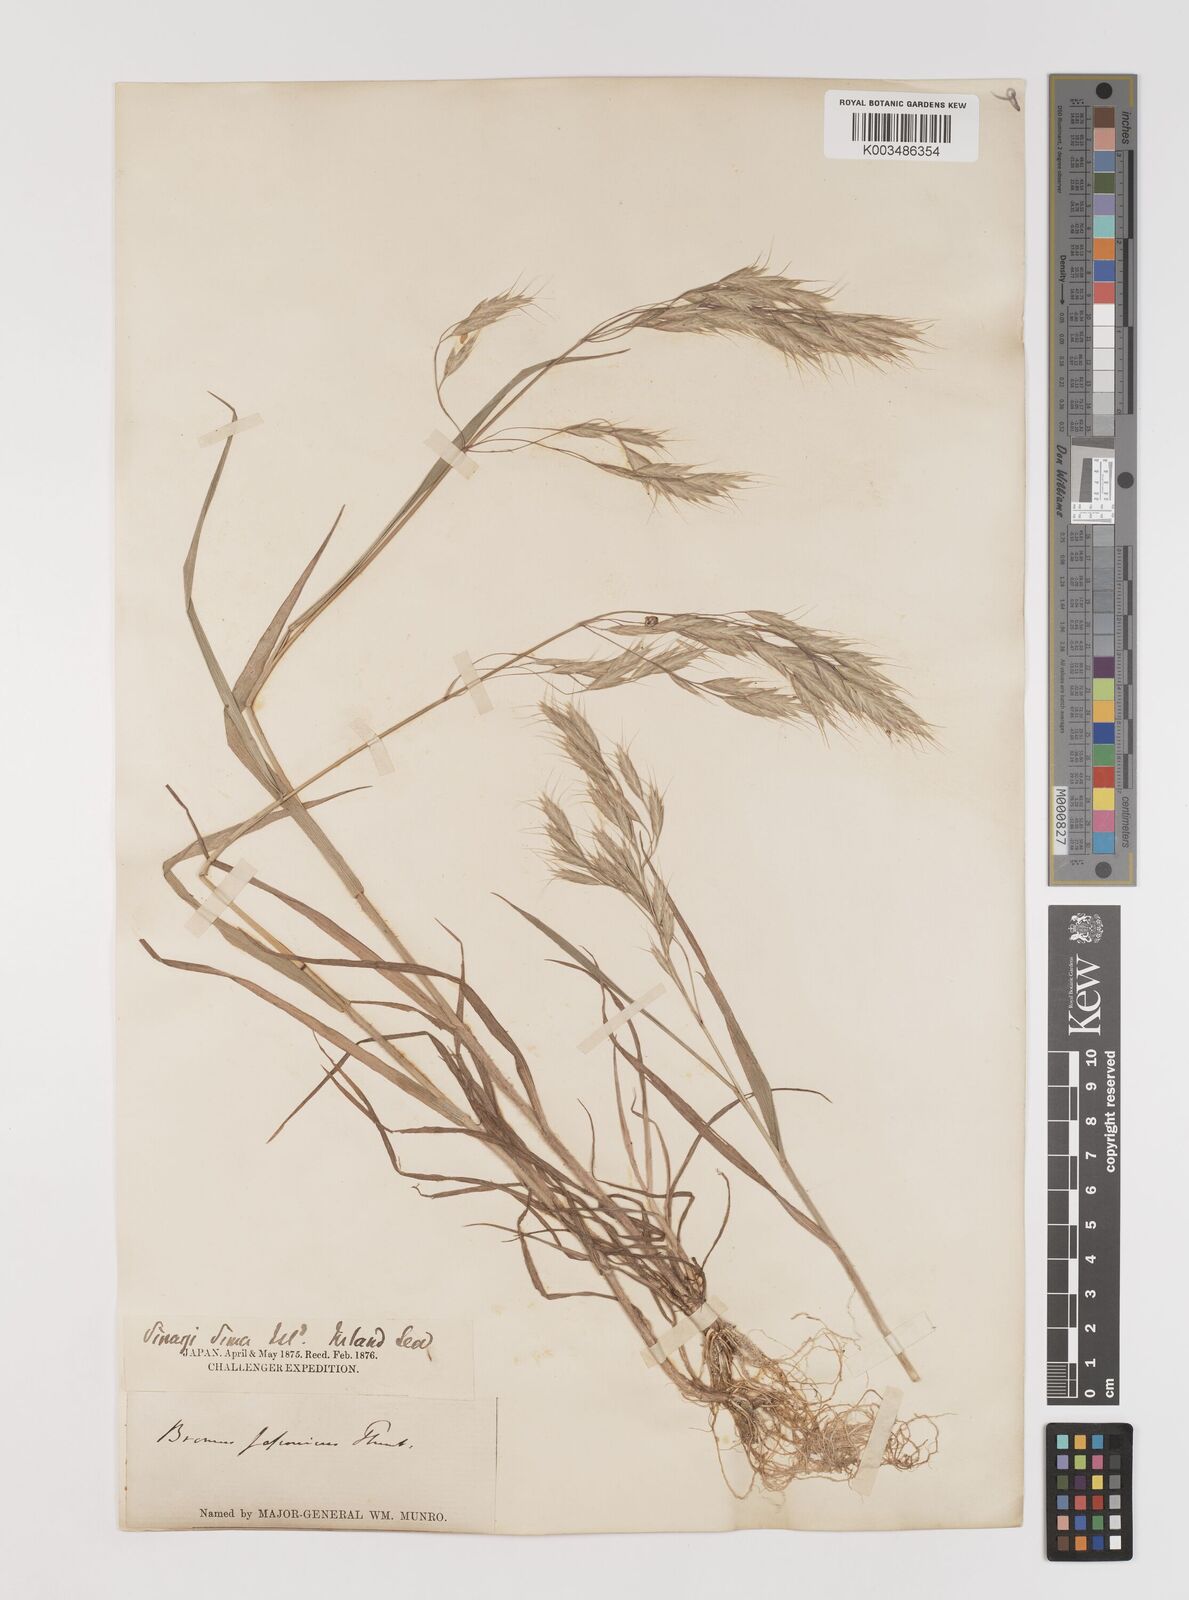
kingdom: Plantae
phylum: Tracheophyta
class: Liliopsida
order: Poales
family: Poaceae
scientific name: Poaceae
